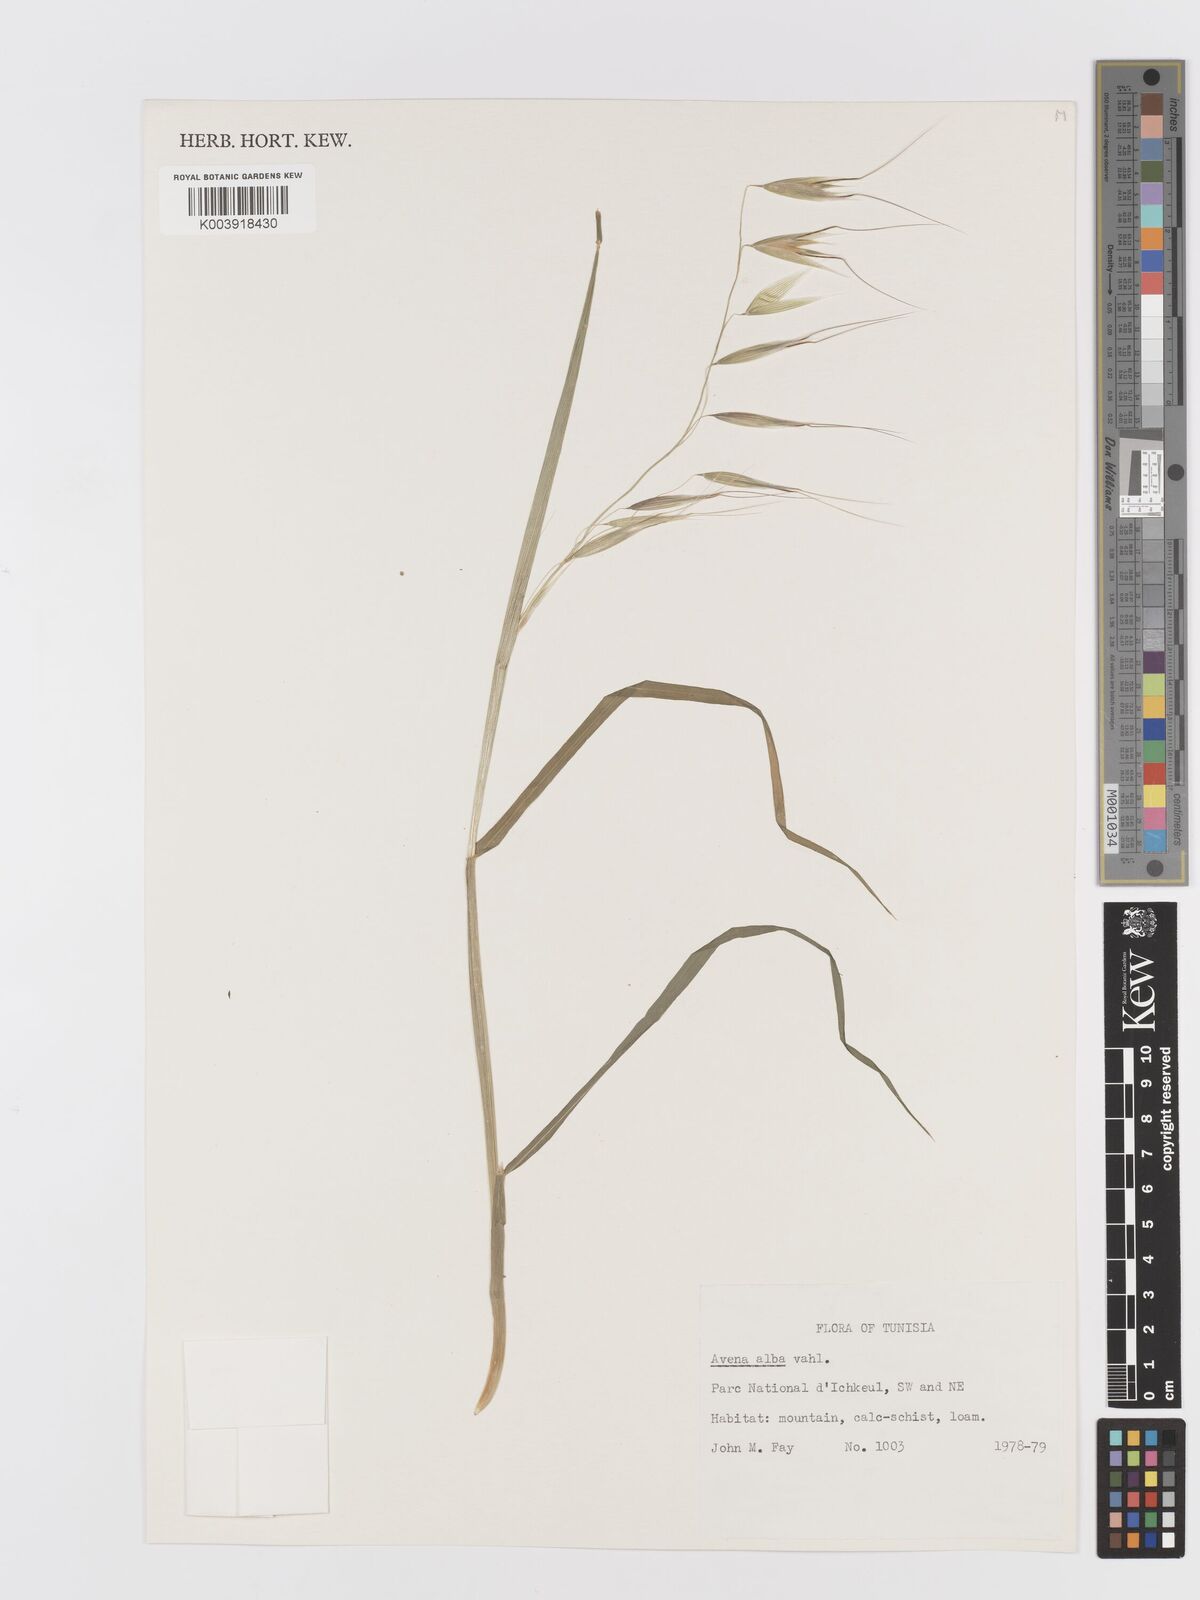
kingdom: Plantae
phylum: Tracheophyta
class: Liliopsida
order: Poales
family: Poaceae
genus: Avena
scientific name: Avena
